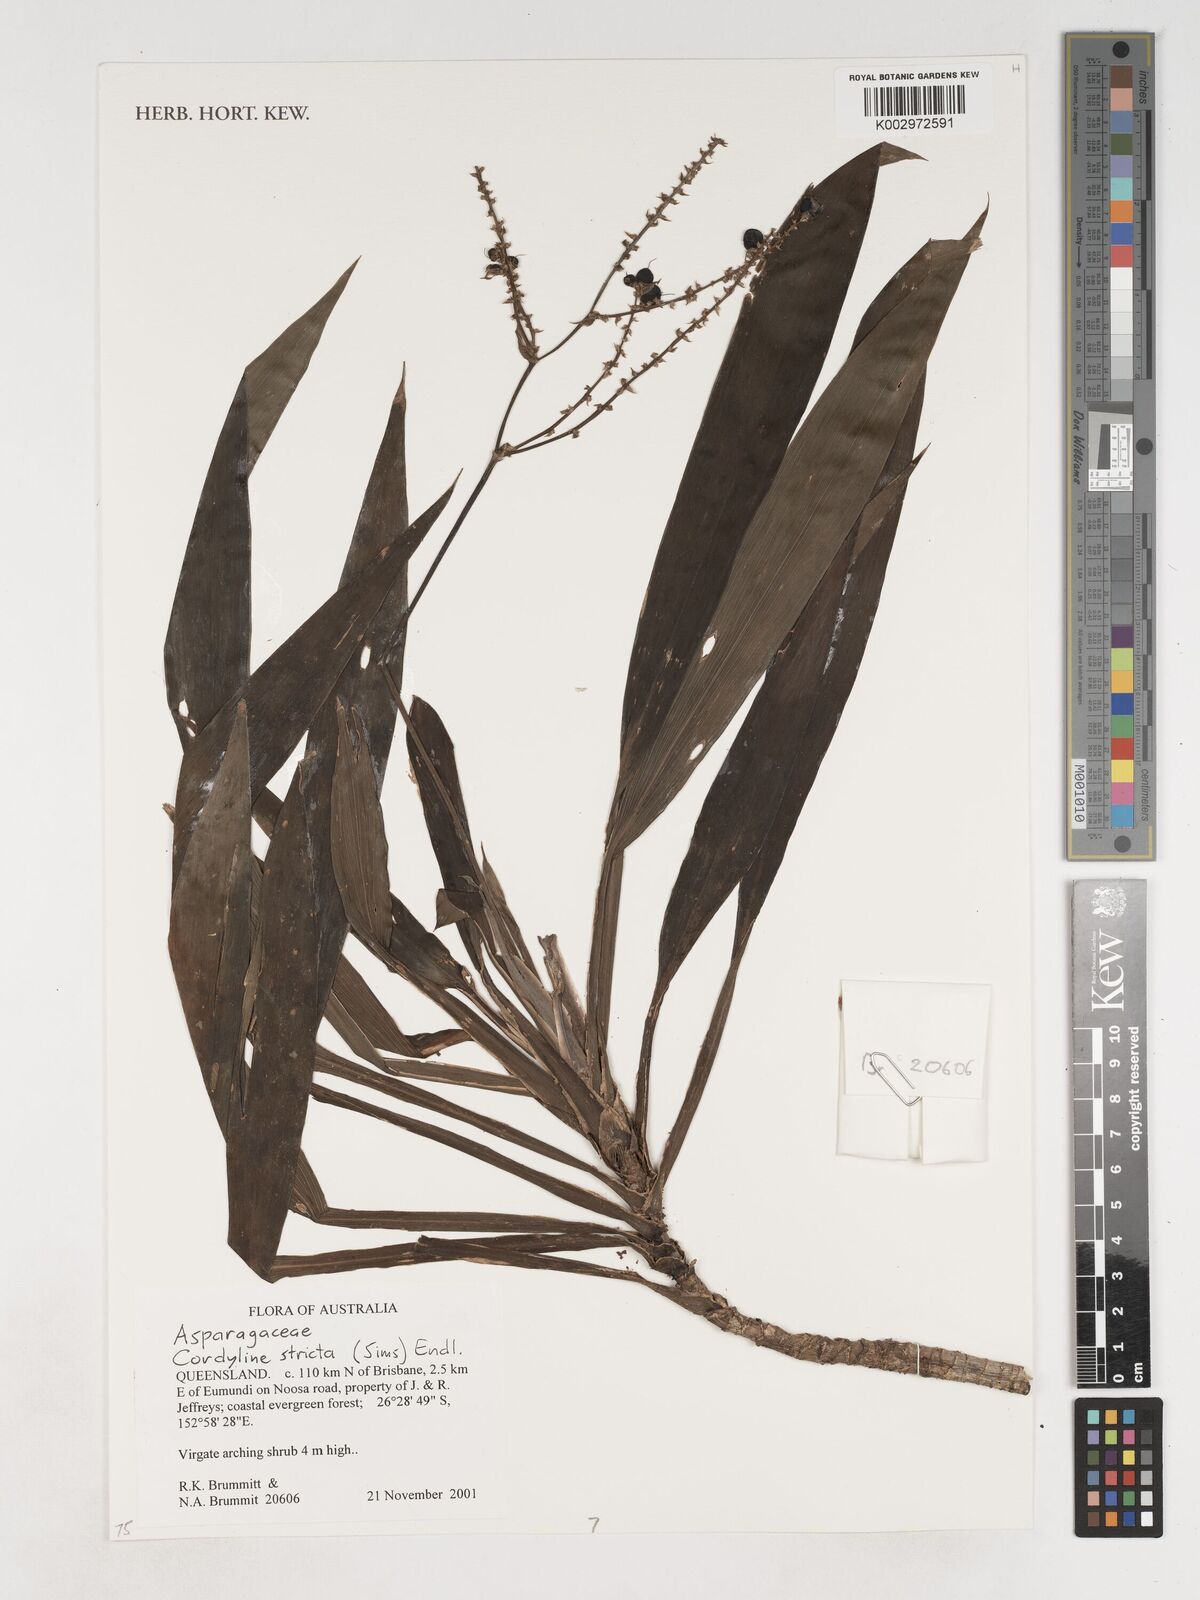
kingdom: Plantae
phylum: Tracheophyta
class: Liliopsida
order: Asparagales
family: Asparagaceae
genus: Cordyline
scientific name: Cordyline stricta
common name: Narrow-leaf palm-lily
